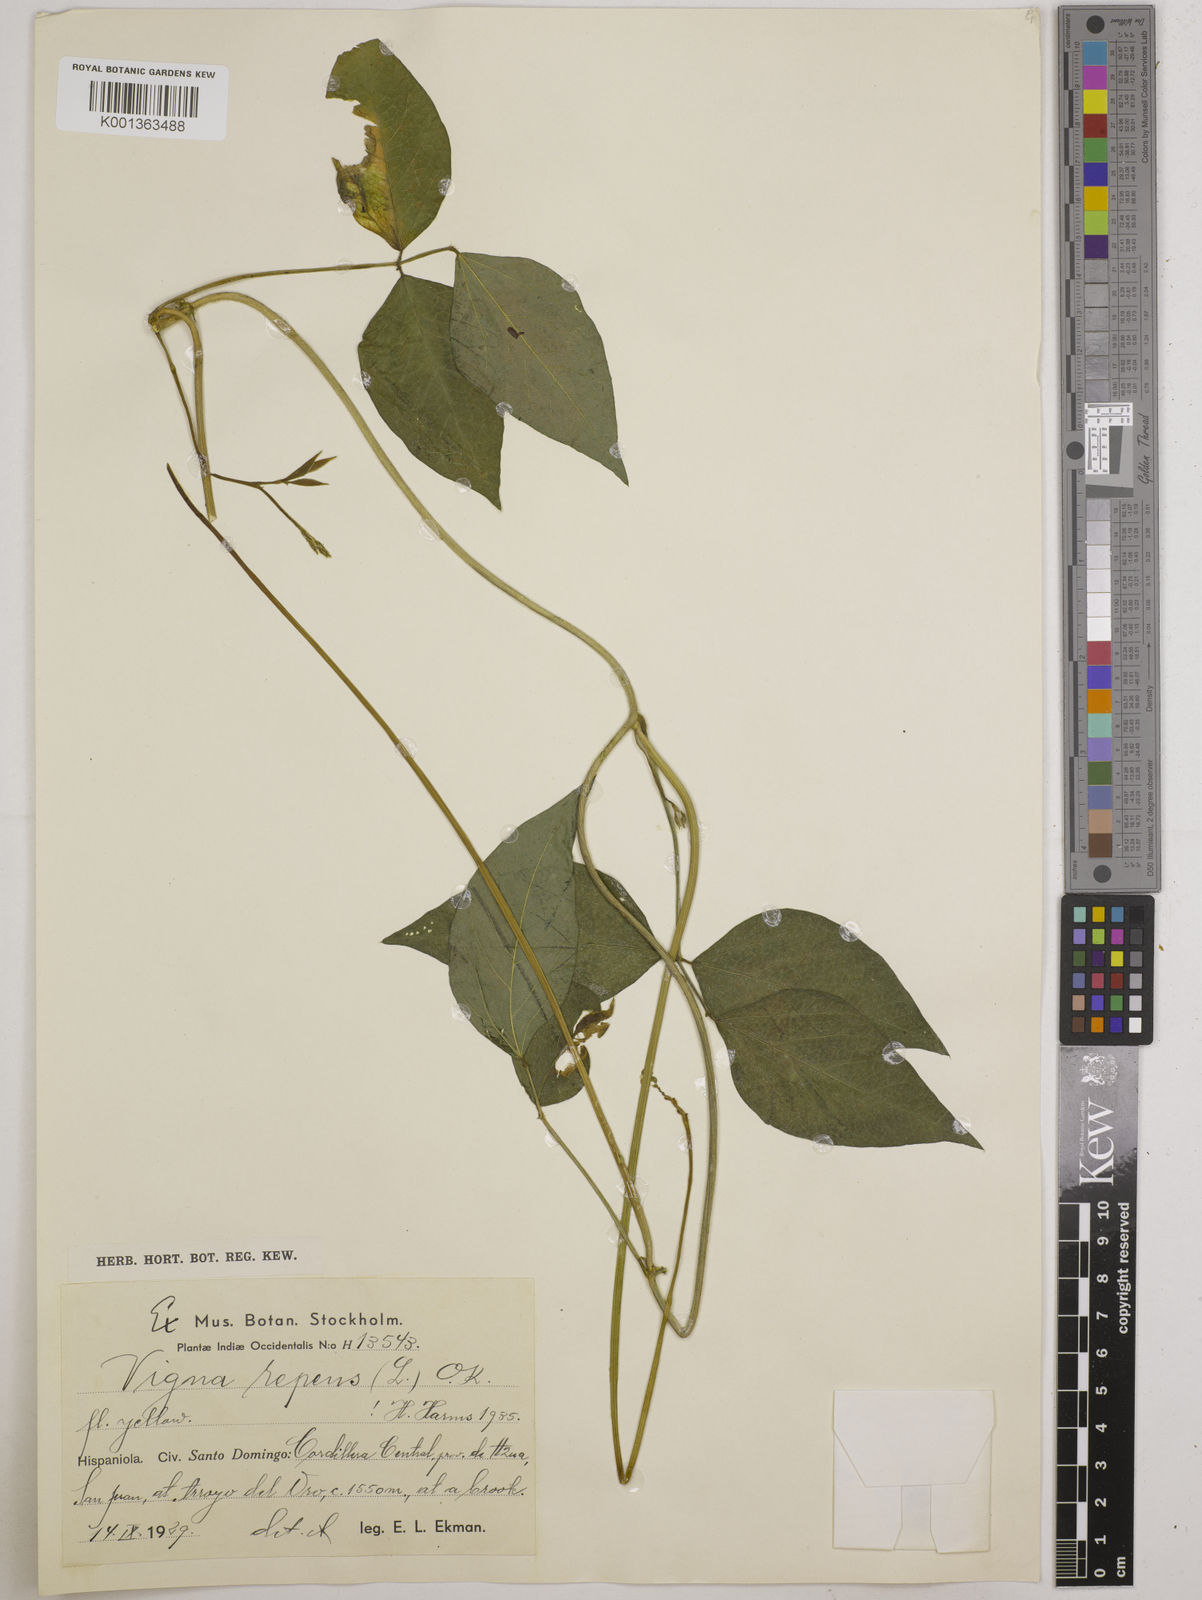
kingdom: Plantae
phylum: Tracheophyta
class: Magnoliopsida
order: Fabales
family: Fabaceae
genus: Vigna
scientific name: Vigna luteola
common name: Hairypod cowpea
